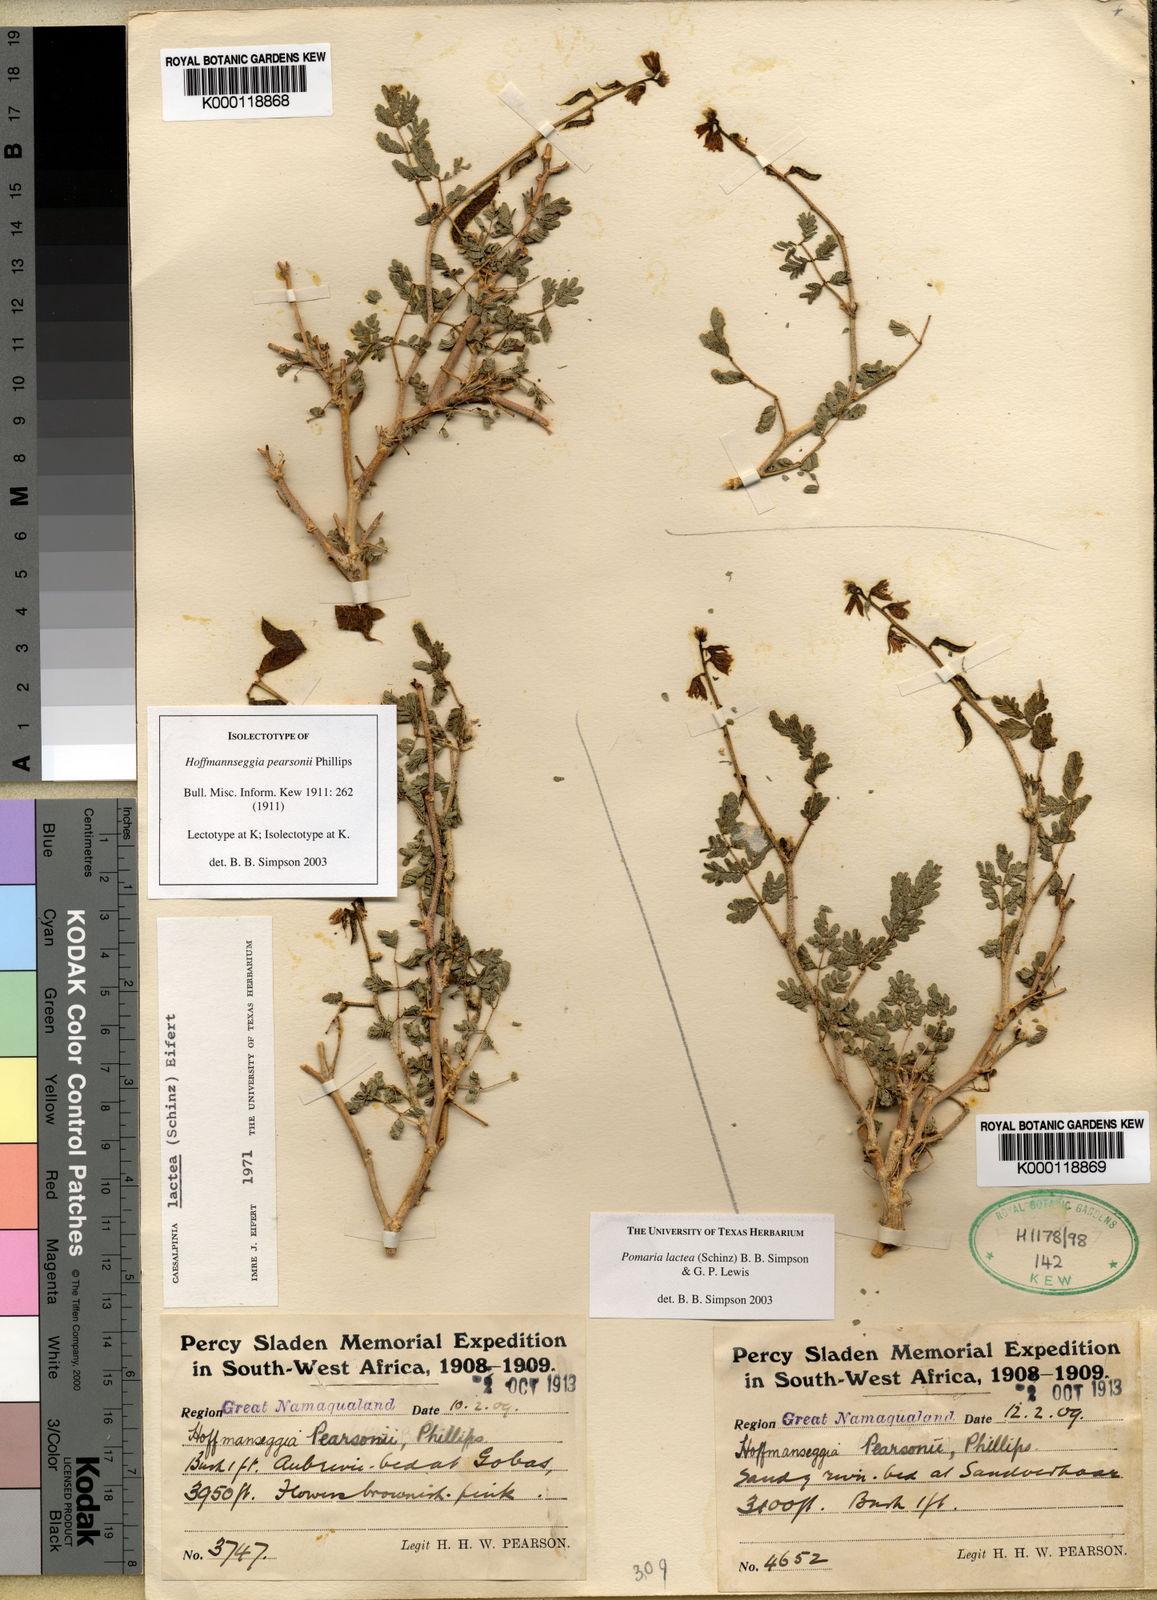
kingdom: Plantae
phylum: Tracheophyta
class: Magnoliopsida
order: Fabales
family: Fabaceae
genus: Pomaria
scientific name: Pomaria
